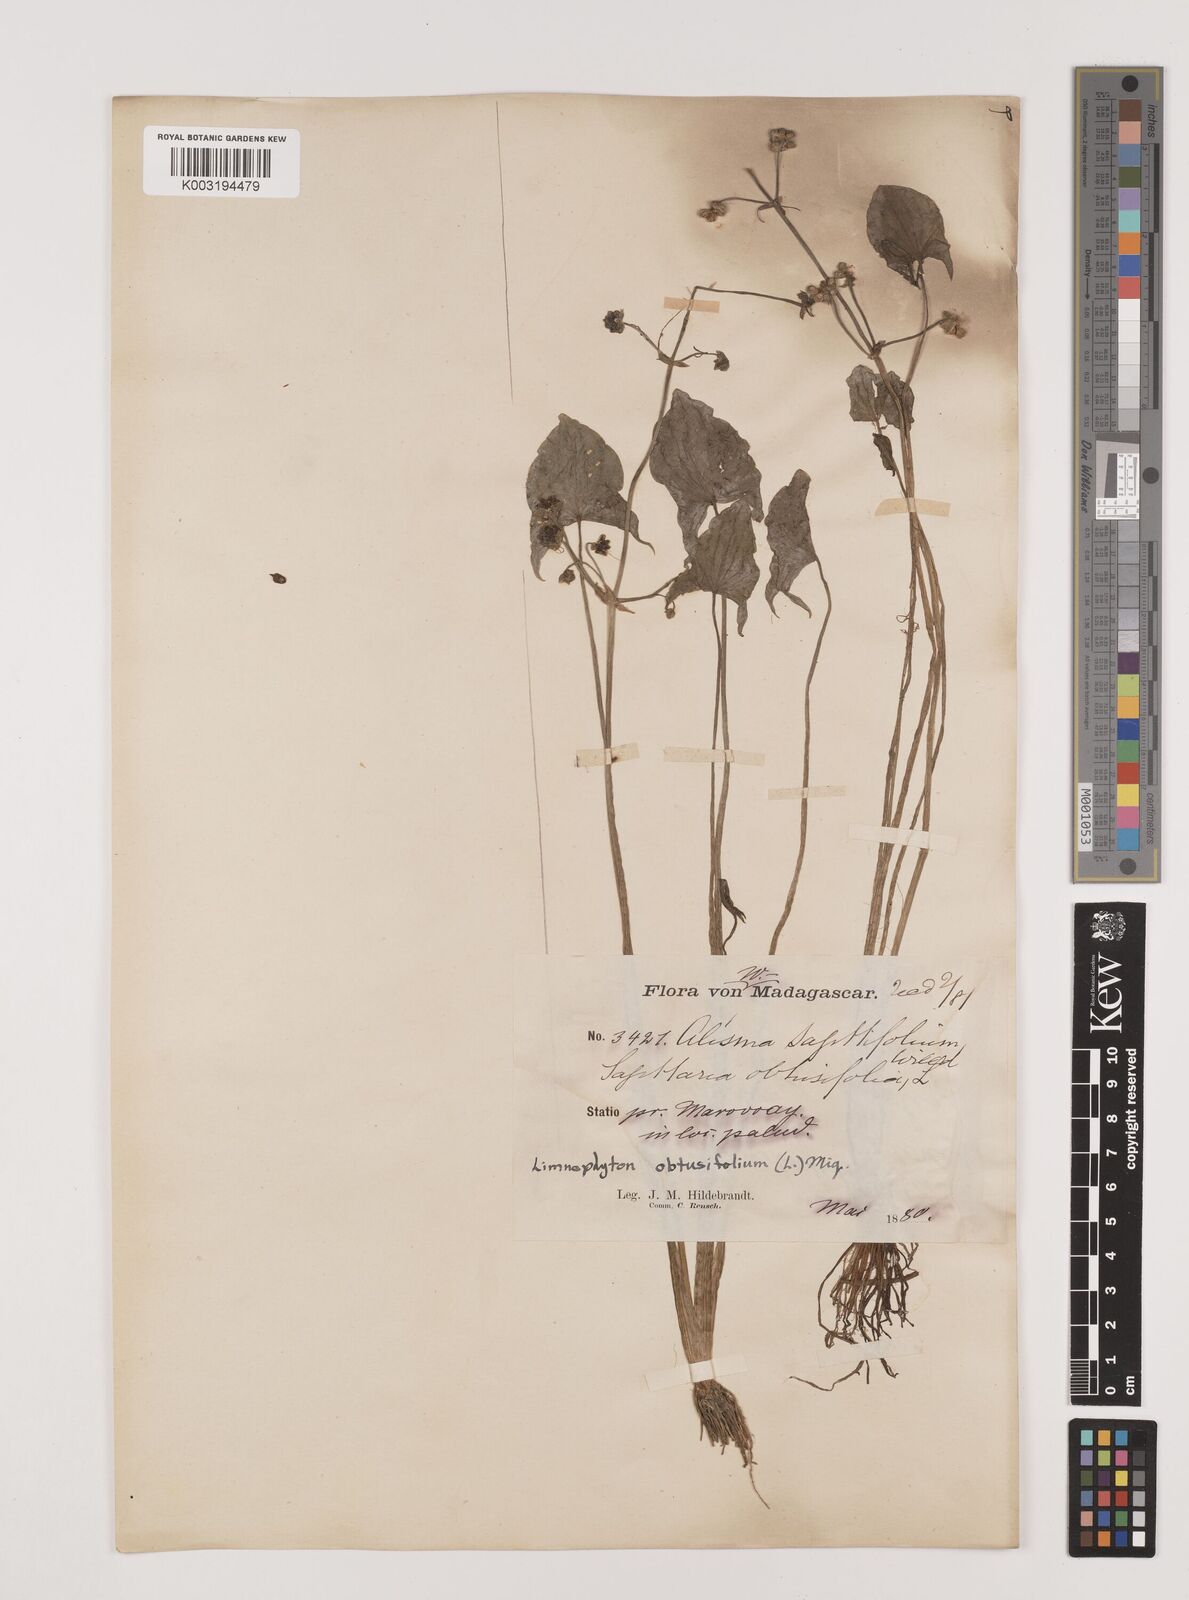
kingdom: Plantae
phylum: Tracheophyta
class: Liliopsida
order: Alismatales
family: Alismataceae
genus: Limnophyton
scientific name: Limnophyton obtusifolium
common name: Arrow head
